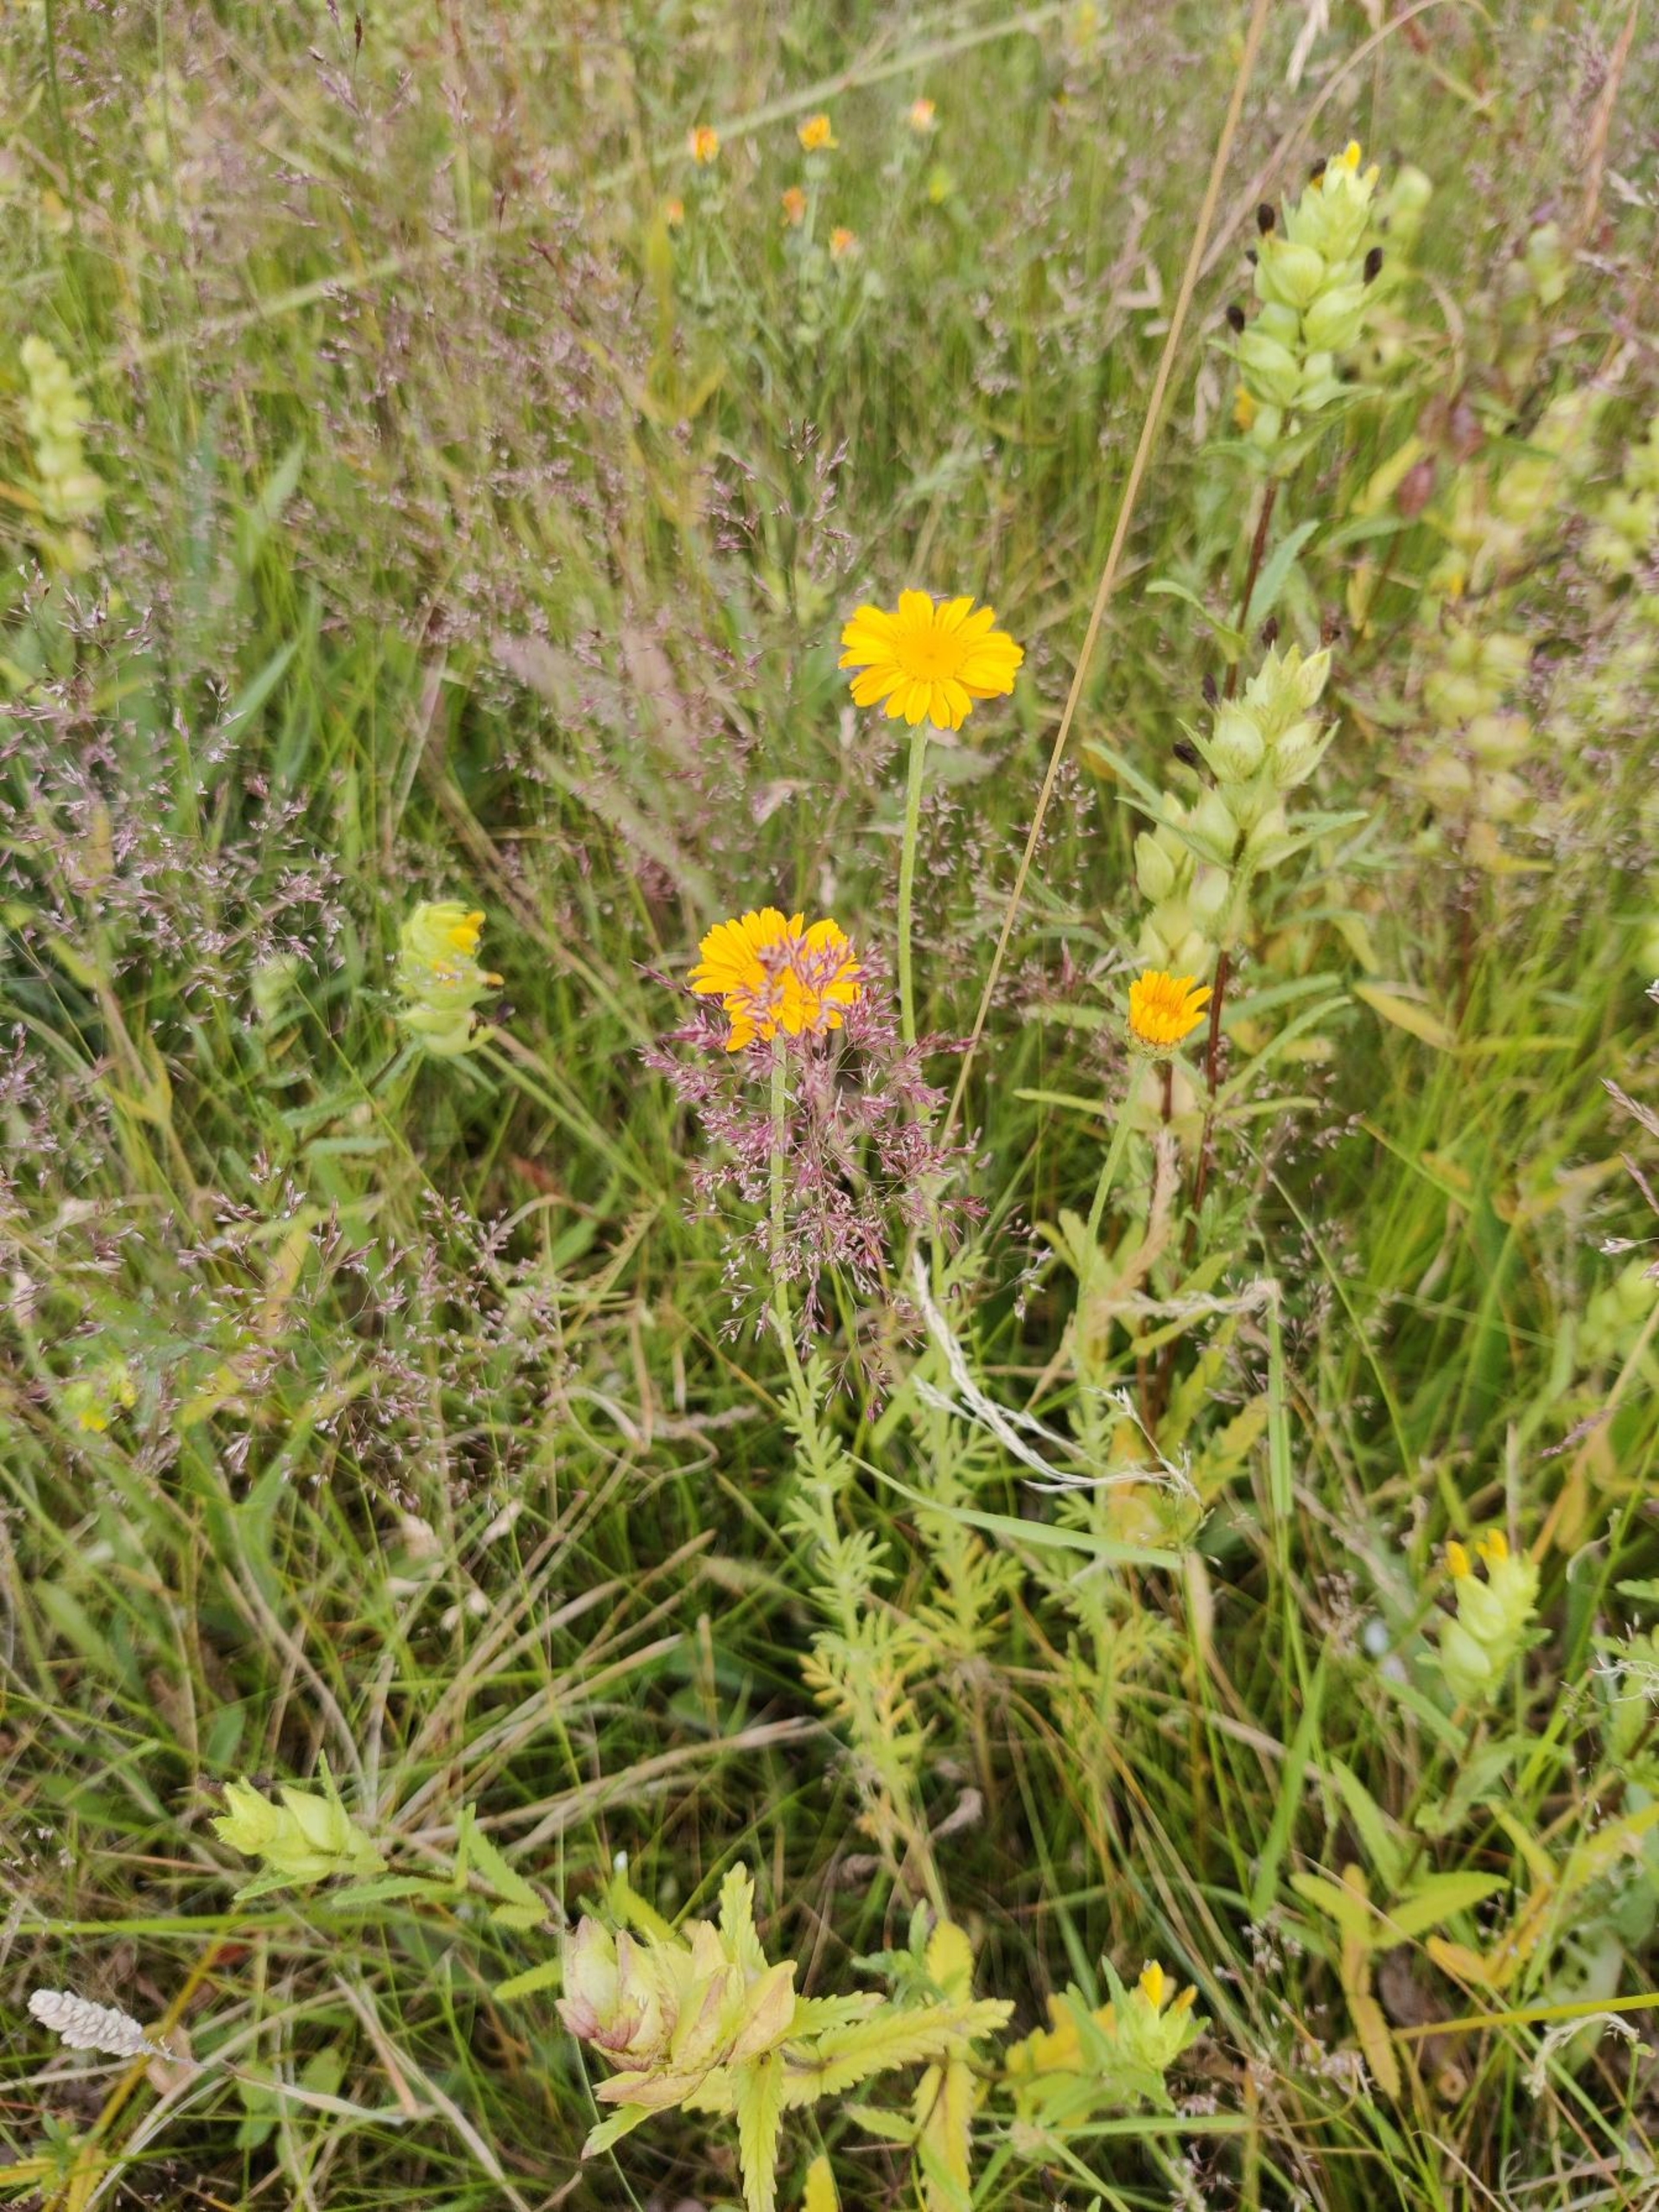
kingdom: Plantae
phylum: Tracheophyta
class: Magnoliopsida
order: Asterales
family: Asteraceae
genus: Cota
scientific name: Cota tinctoria
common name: Farve-gåseurt
